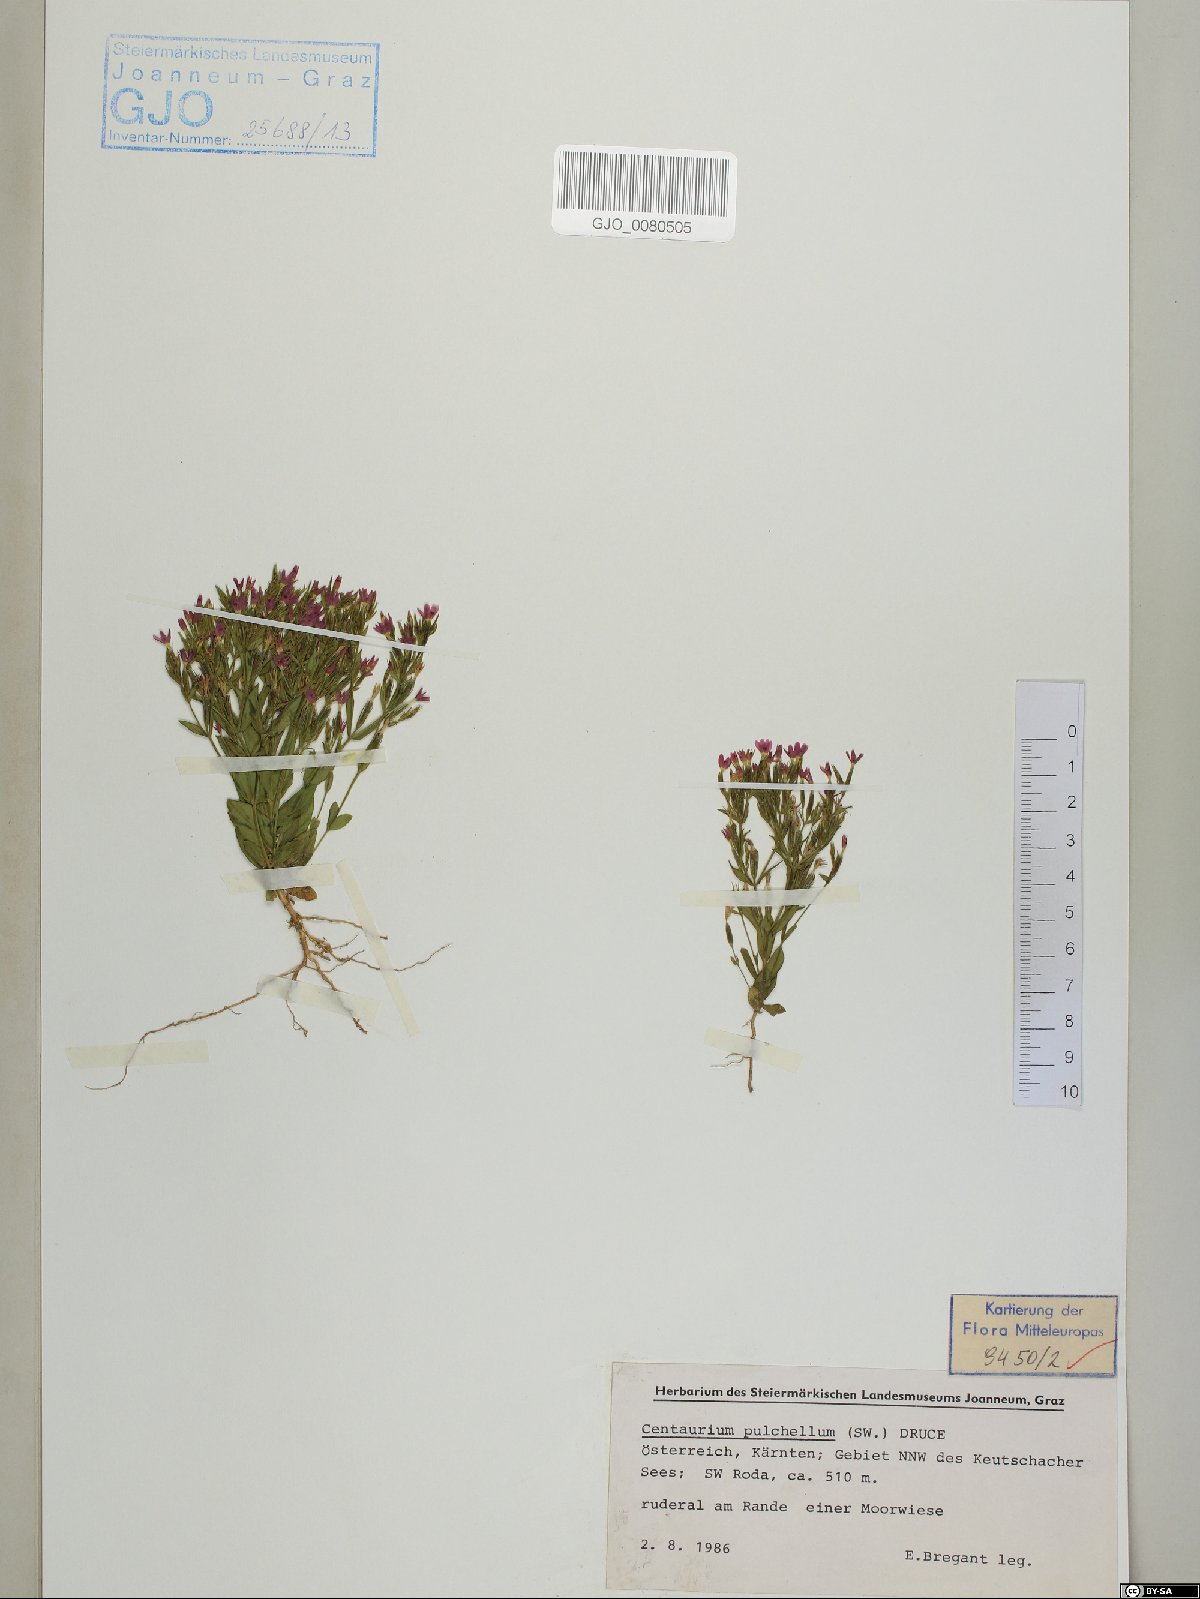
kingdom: Plantae
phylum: Tracheophyta
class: Magnoliopsida
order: Gentianales
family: Gentianaceae
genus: Centaurium
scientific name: Centaurium pulchellum
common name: Lesser centaury
